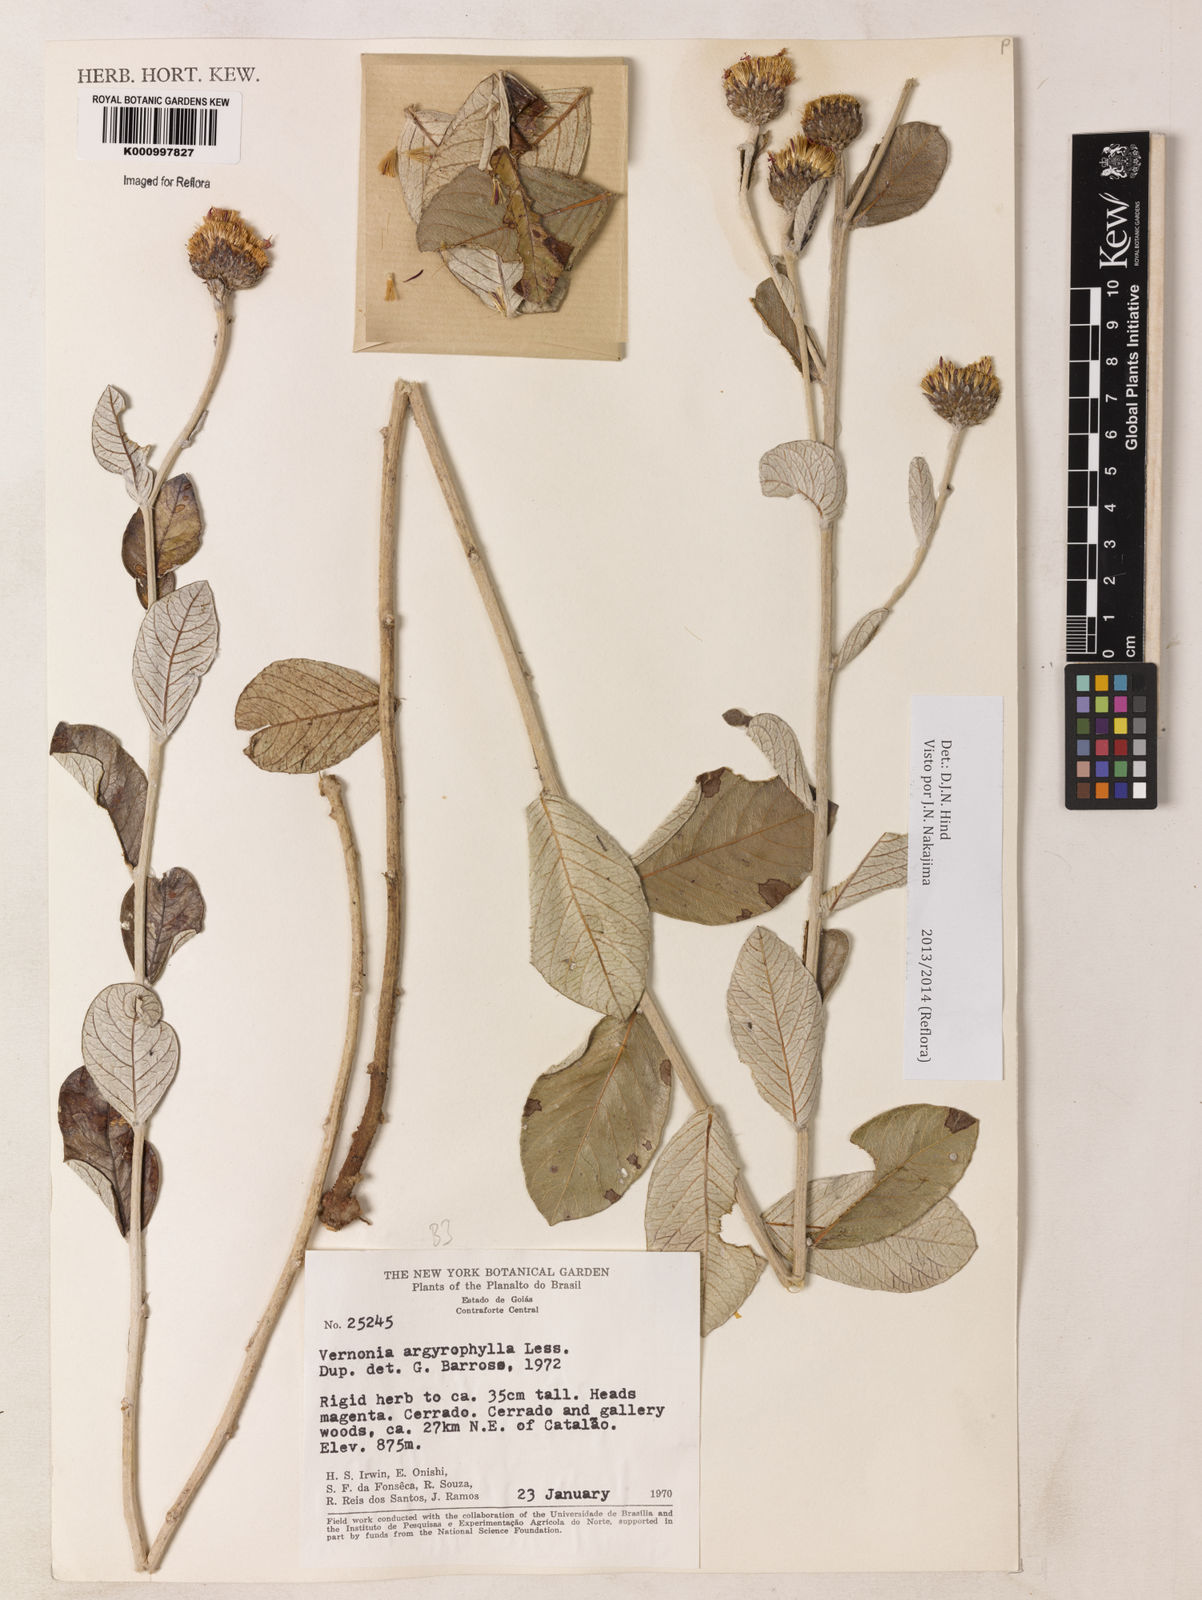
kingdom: Plantae
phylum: Tracheophyta
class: Magnoliopsida
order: Asterales
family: Asteraceae
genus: Lessingianthus
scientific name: Lessingianthus argyrophyllus
